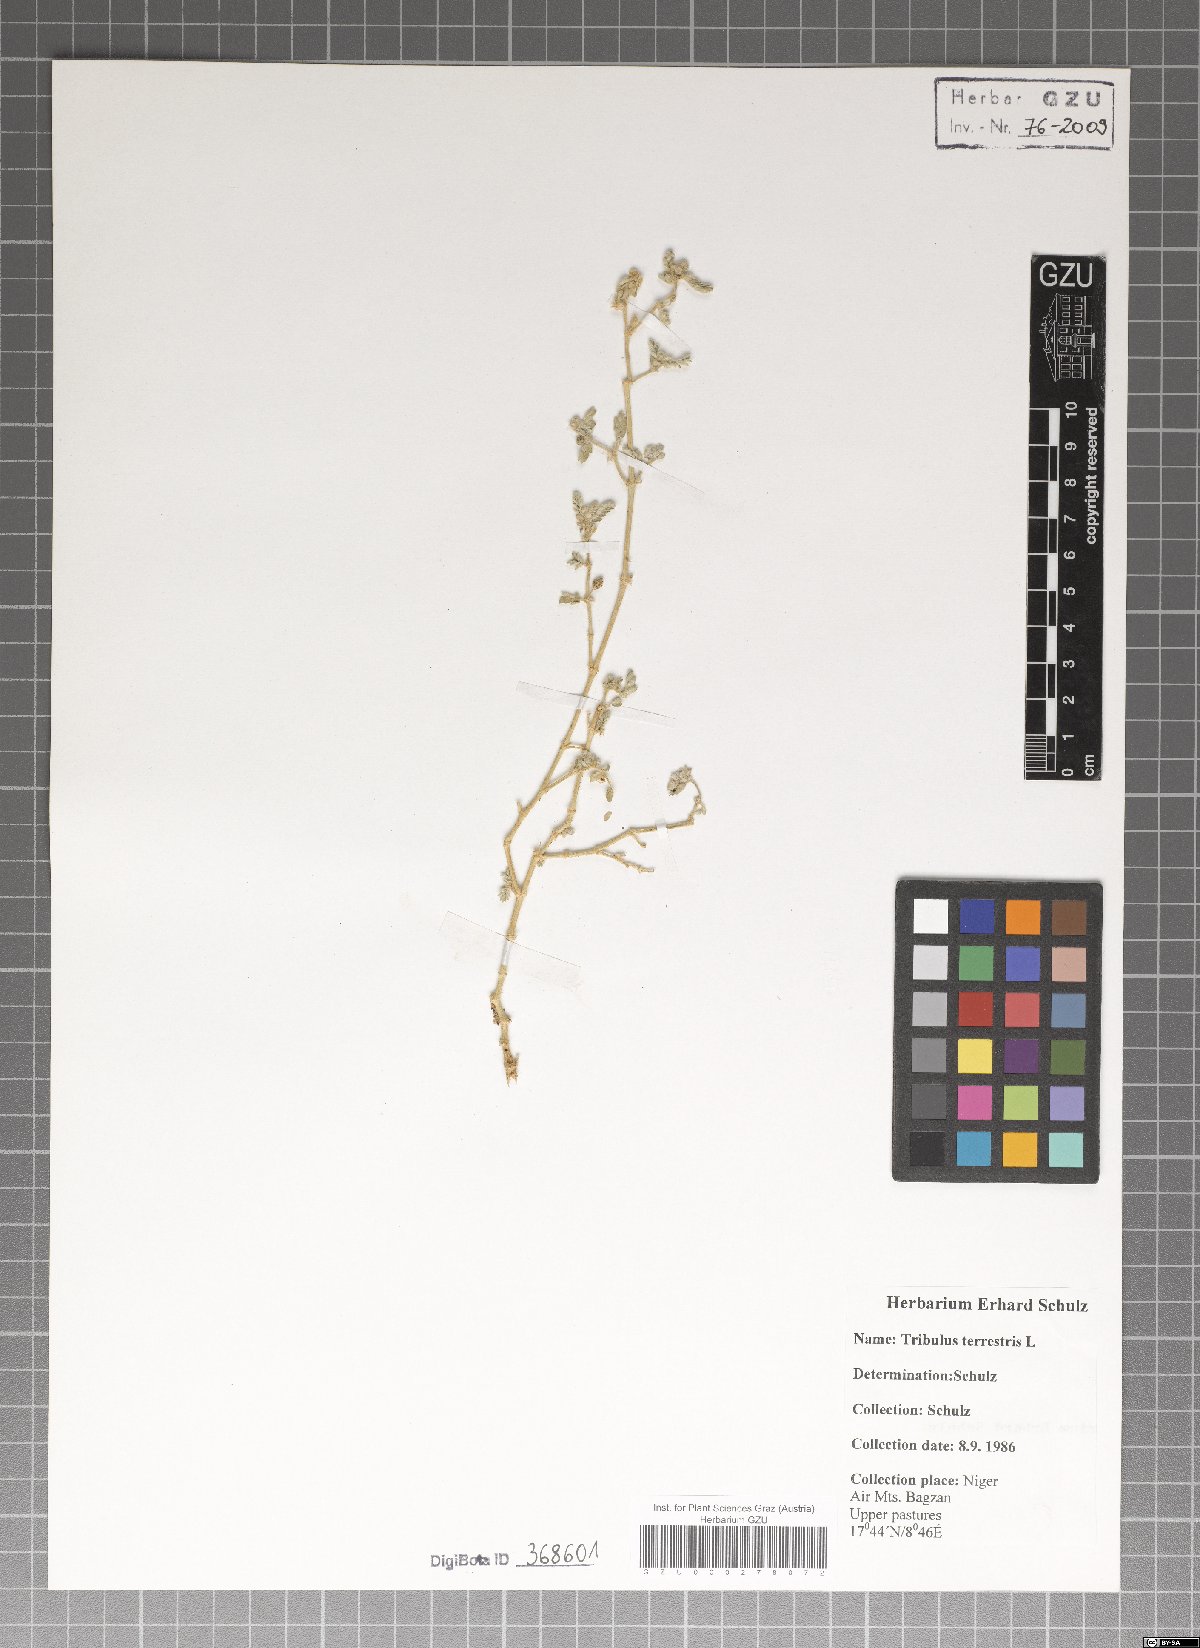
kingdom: Plantae
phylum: Tracheophyta
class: Magnoliopsida
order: Zygophyllales
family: Zygophyllaceae
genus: Tribulus
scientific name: Tribulus terrestris
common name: Puncturevine
